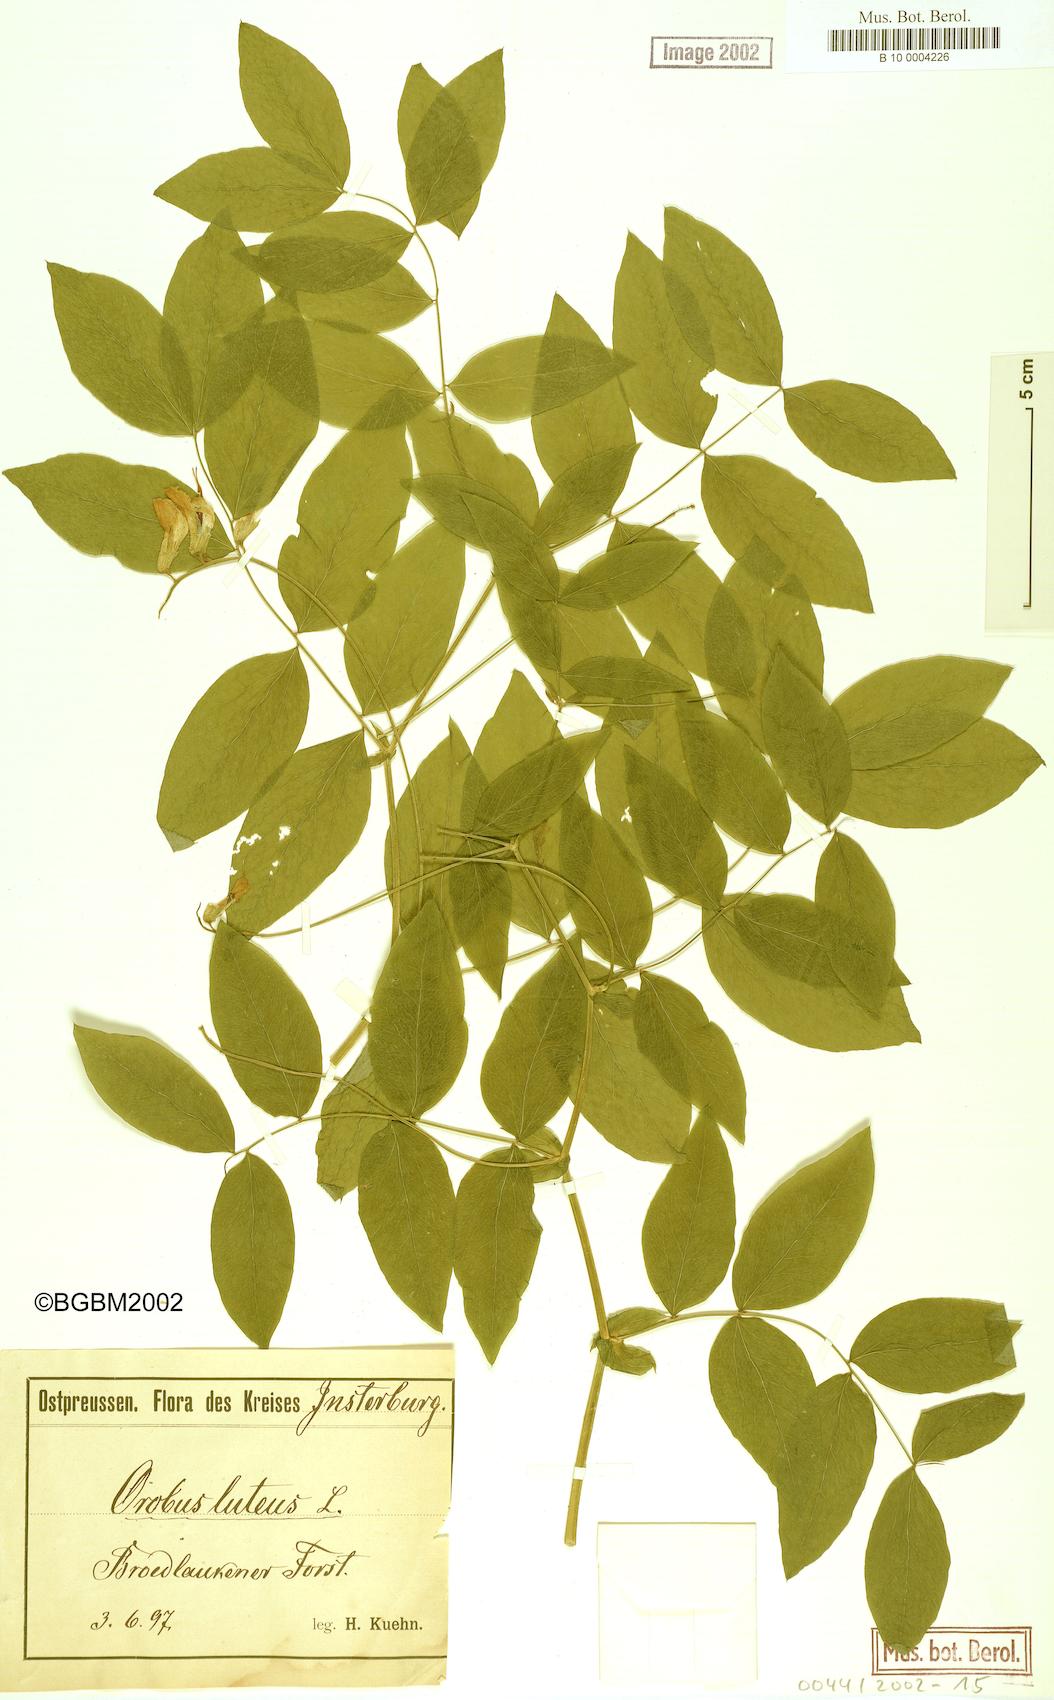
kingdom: Plantae
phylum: Tracheophyta
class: Magnoliopsida
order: Fabales
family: Fabaceae
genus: Lathyrus
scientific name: Lathyrus gmelinii
